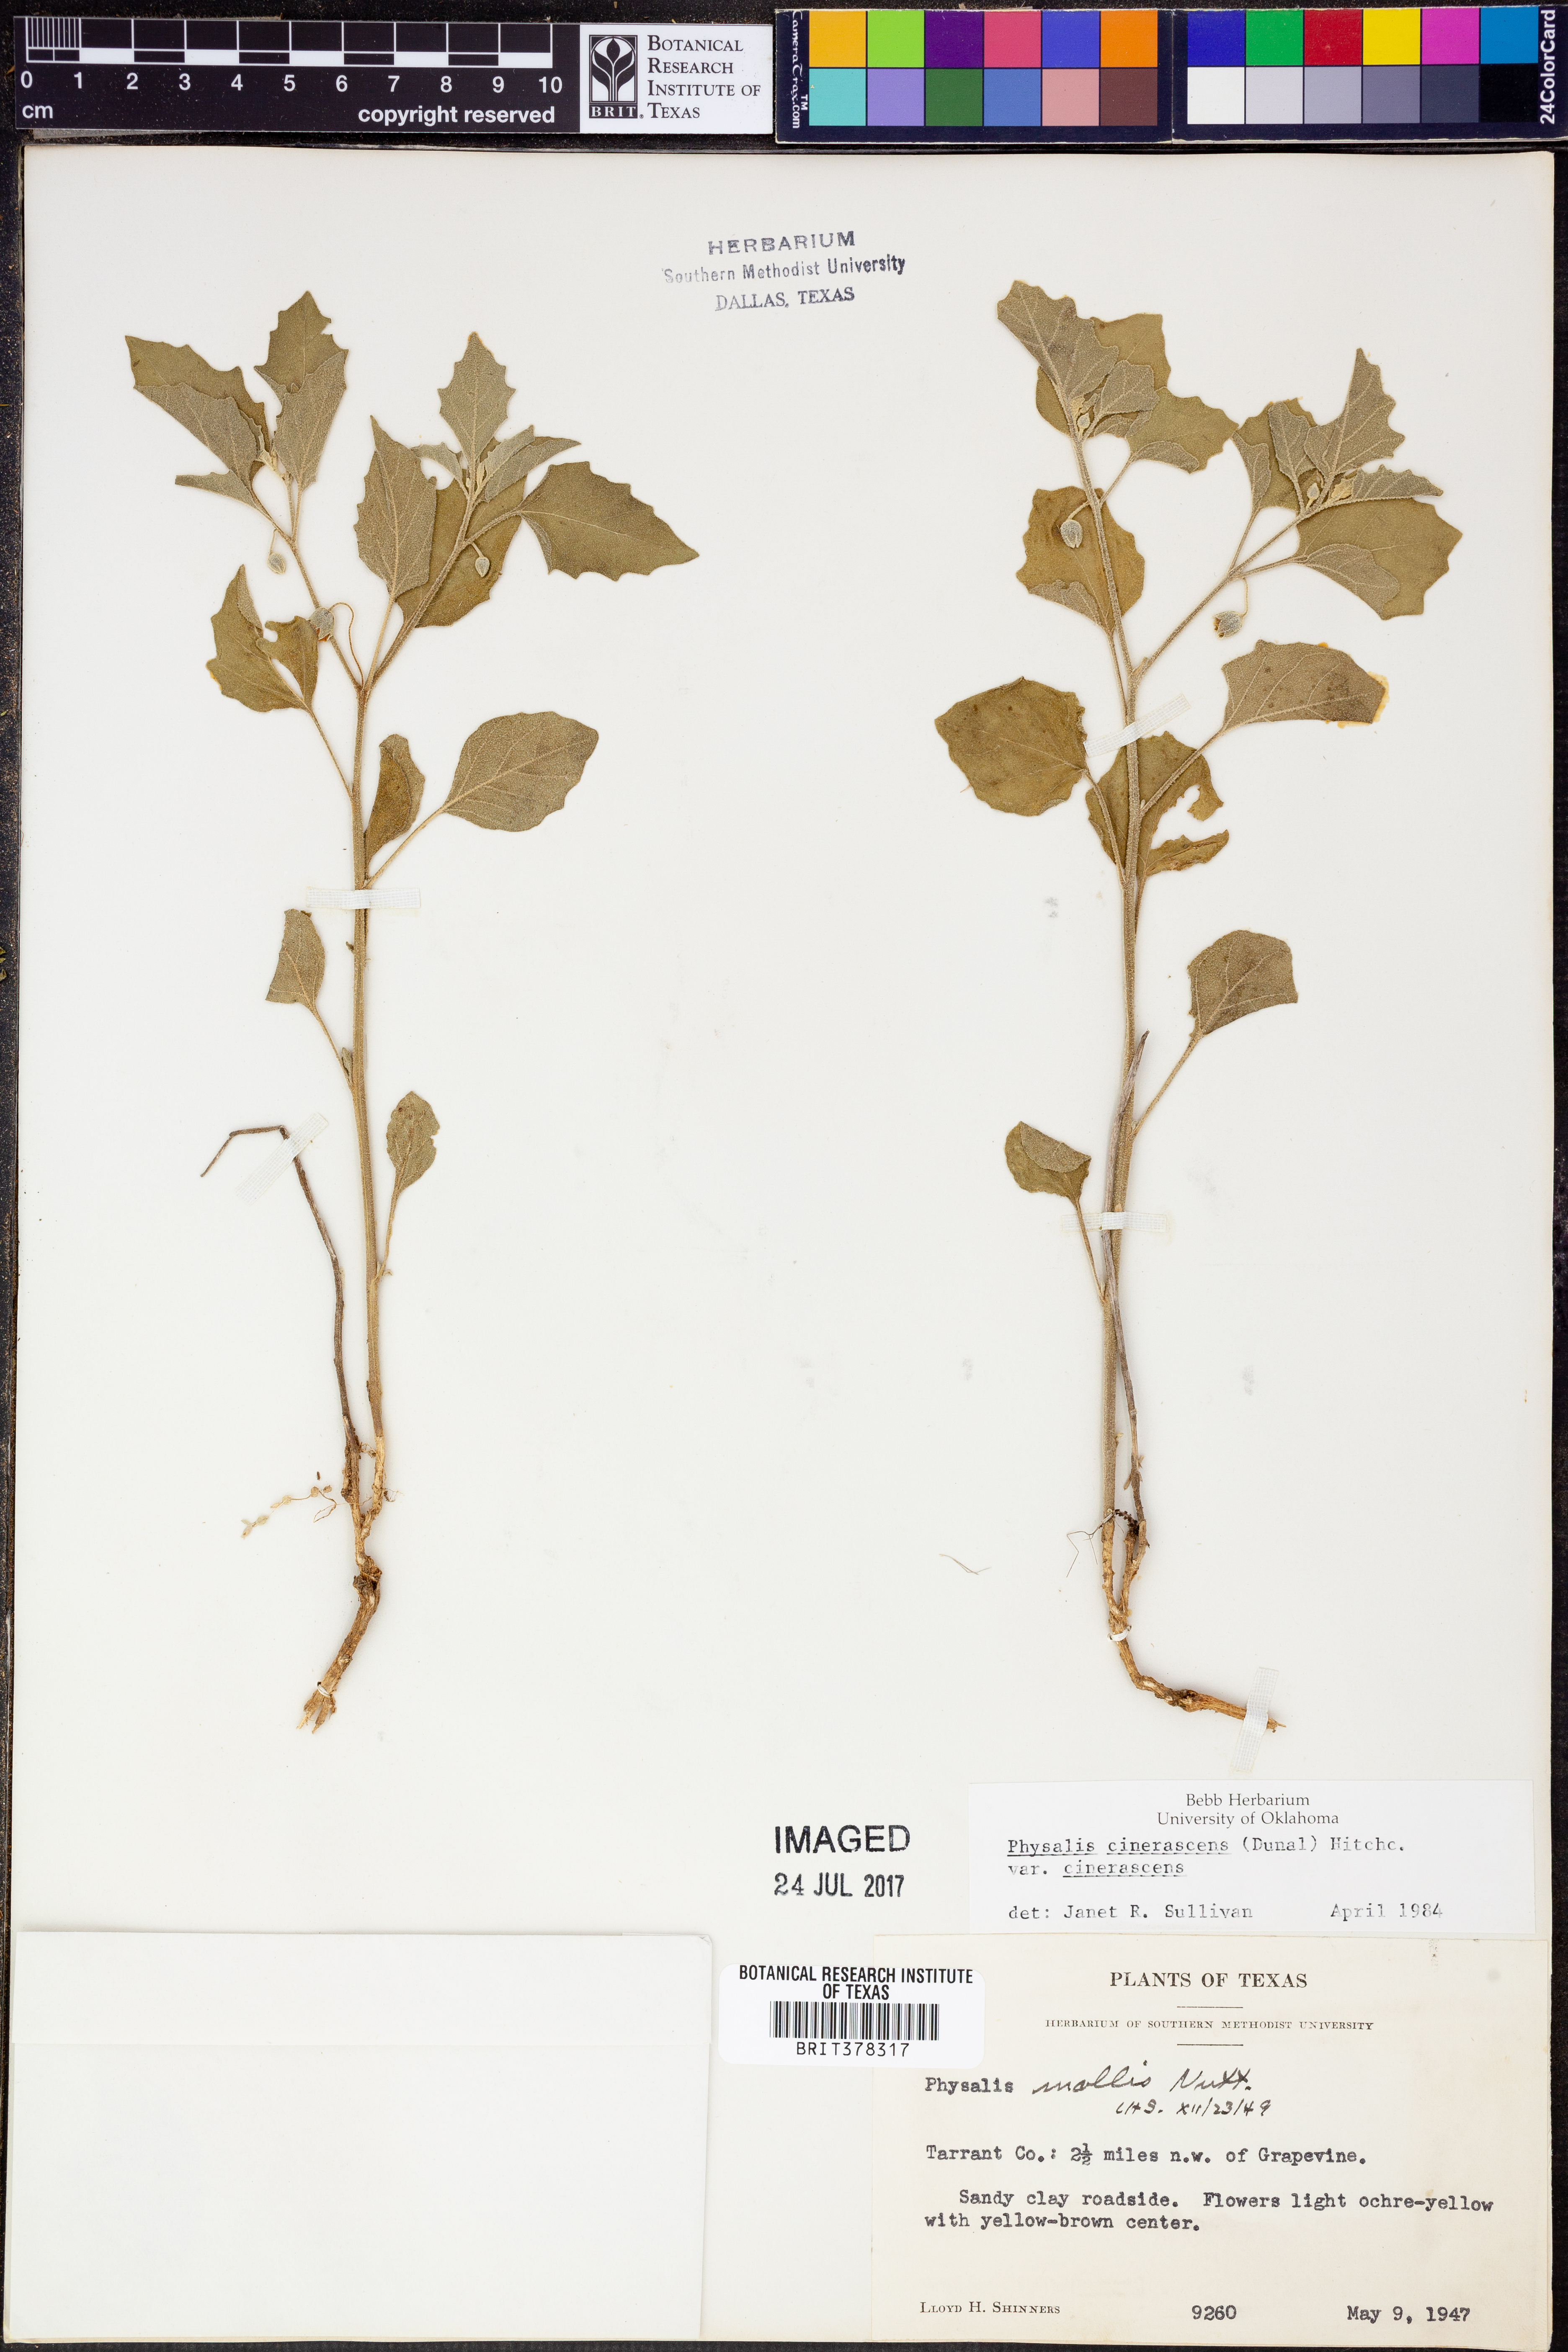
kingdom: Plantae
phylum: Tracheophyta
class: Magnoliopsida
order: Solanales
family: Solanaceae
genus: Physalis
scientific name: Physalis cinerascens
